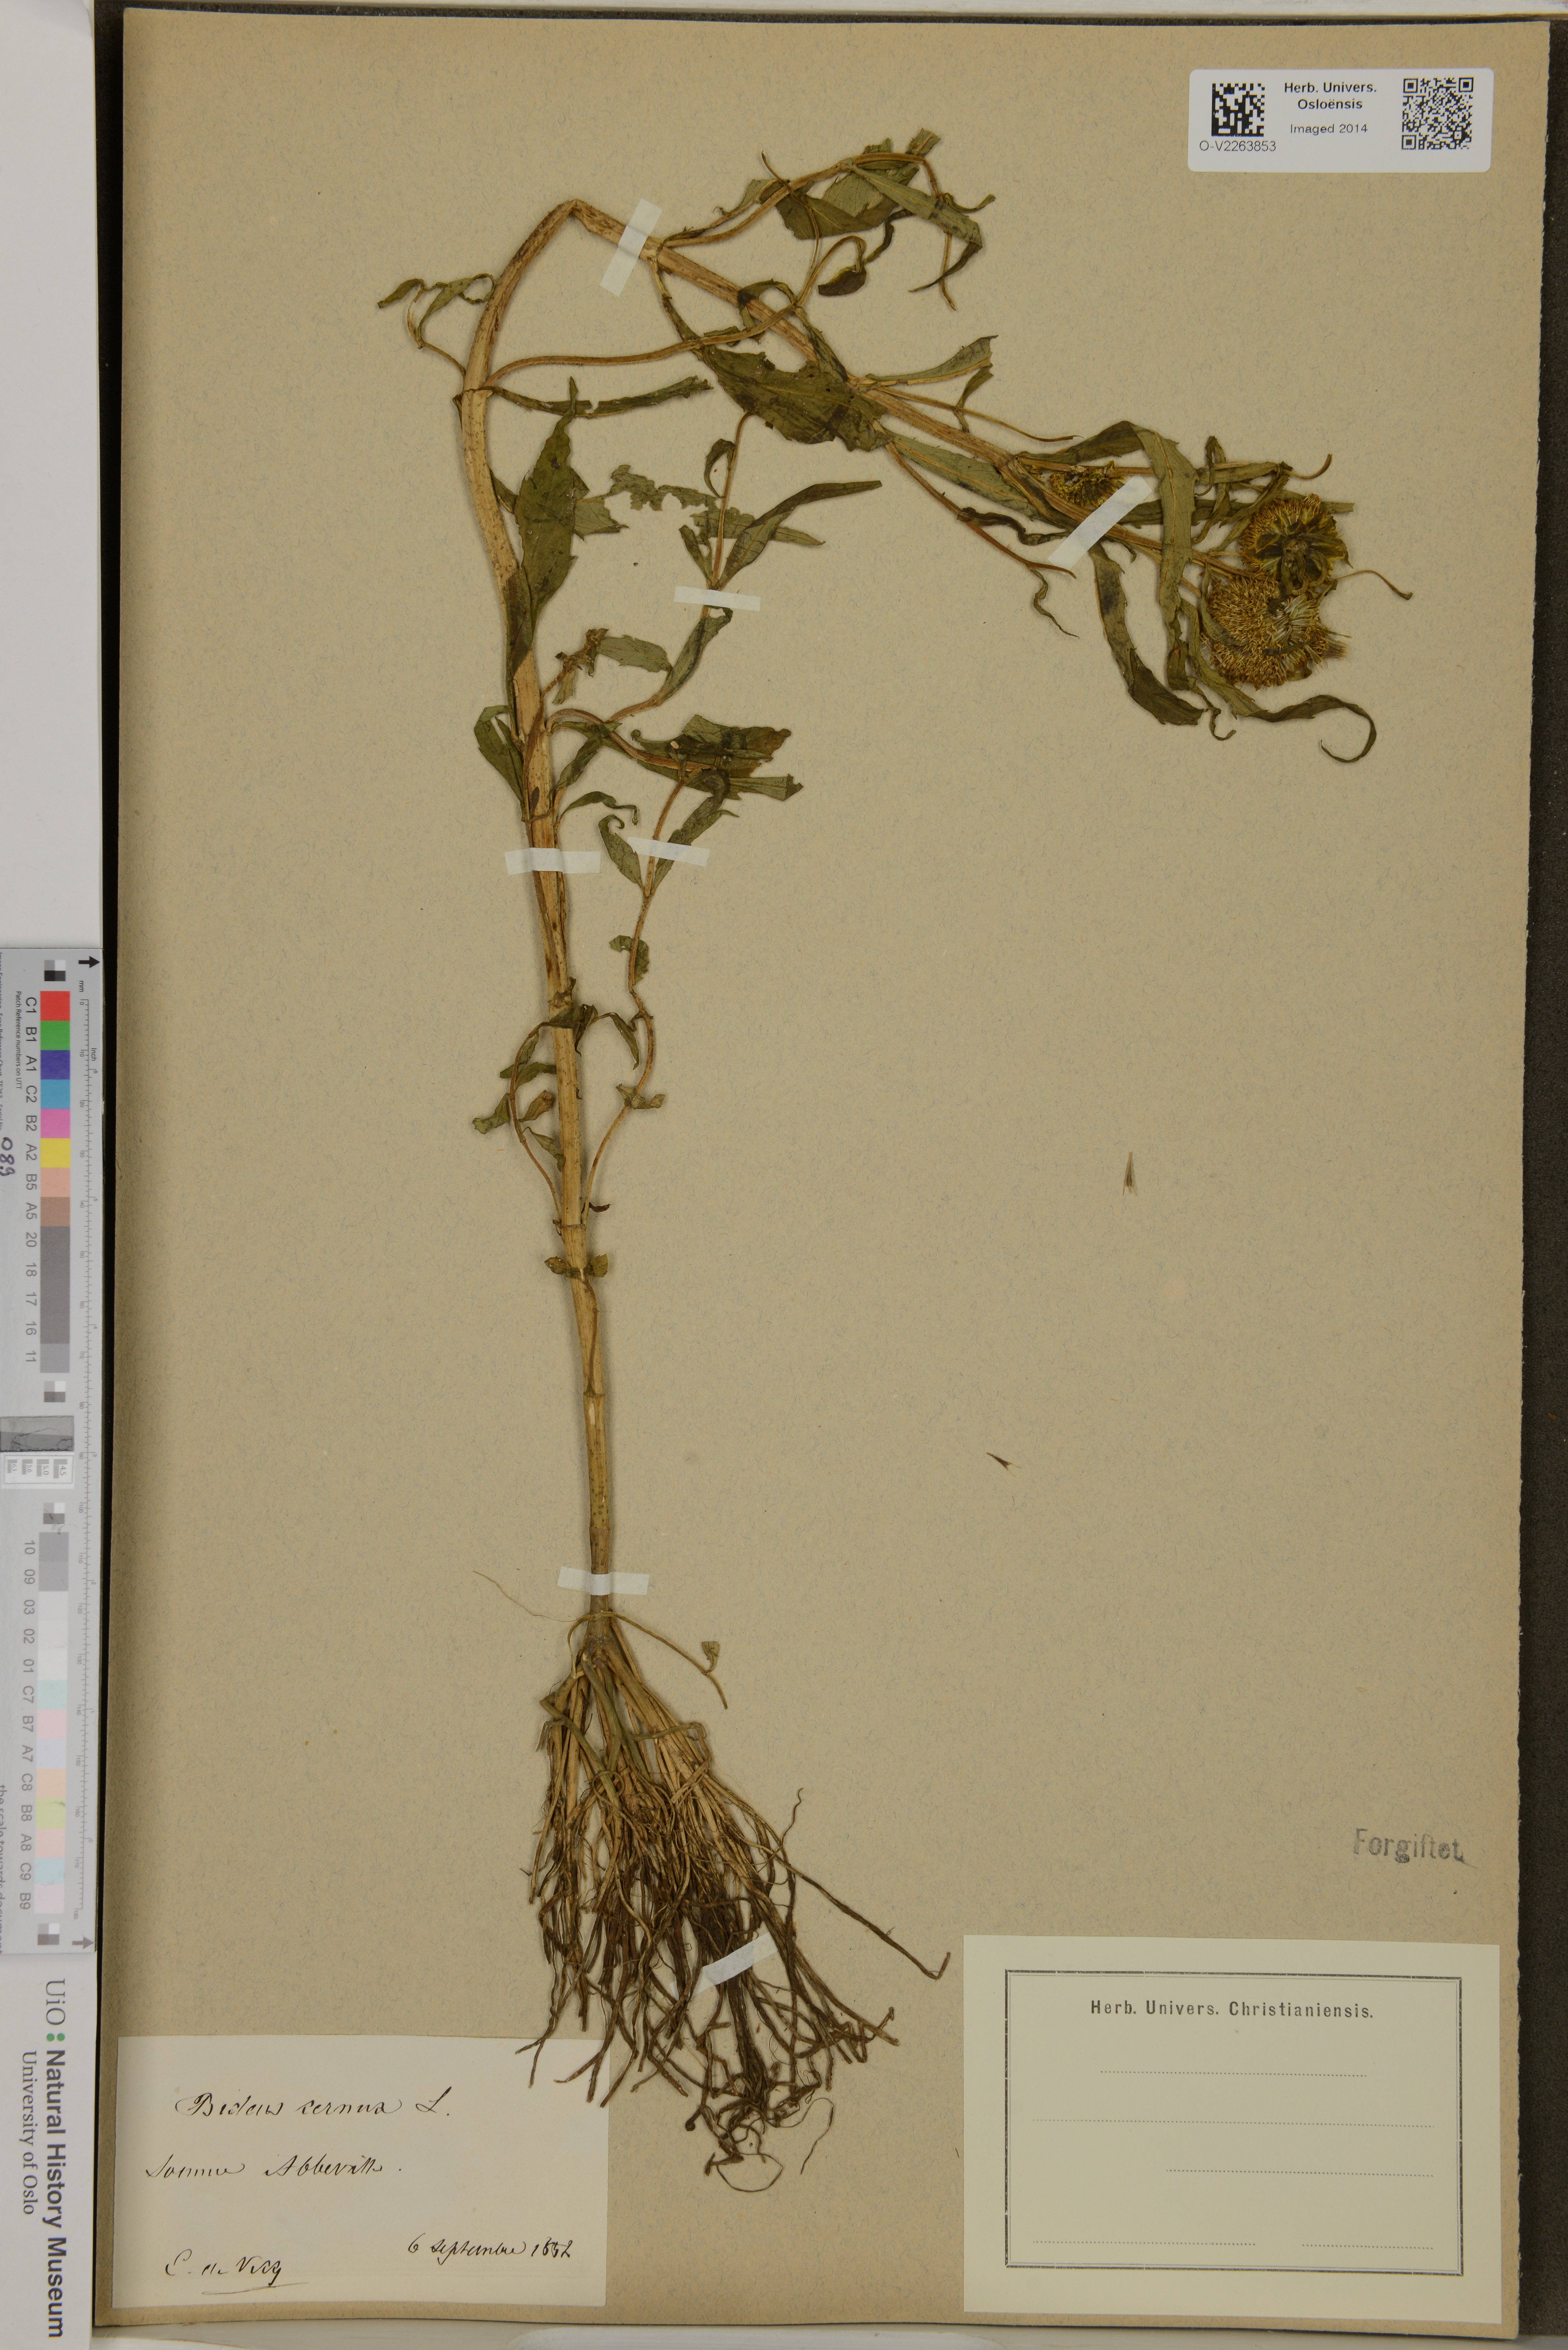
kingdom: Plantae
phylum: Tracheophyta
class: Magnoliopsida
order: Asterales
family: Asteraceae
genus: Bidens
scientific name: Bidens cernua
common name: Nodding bur-marigold
